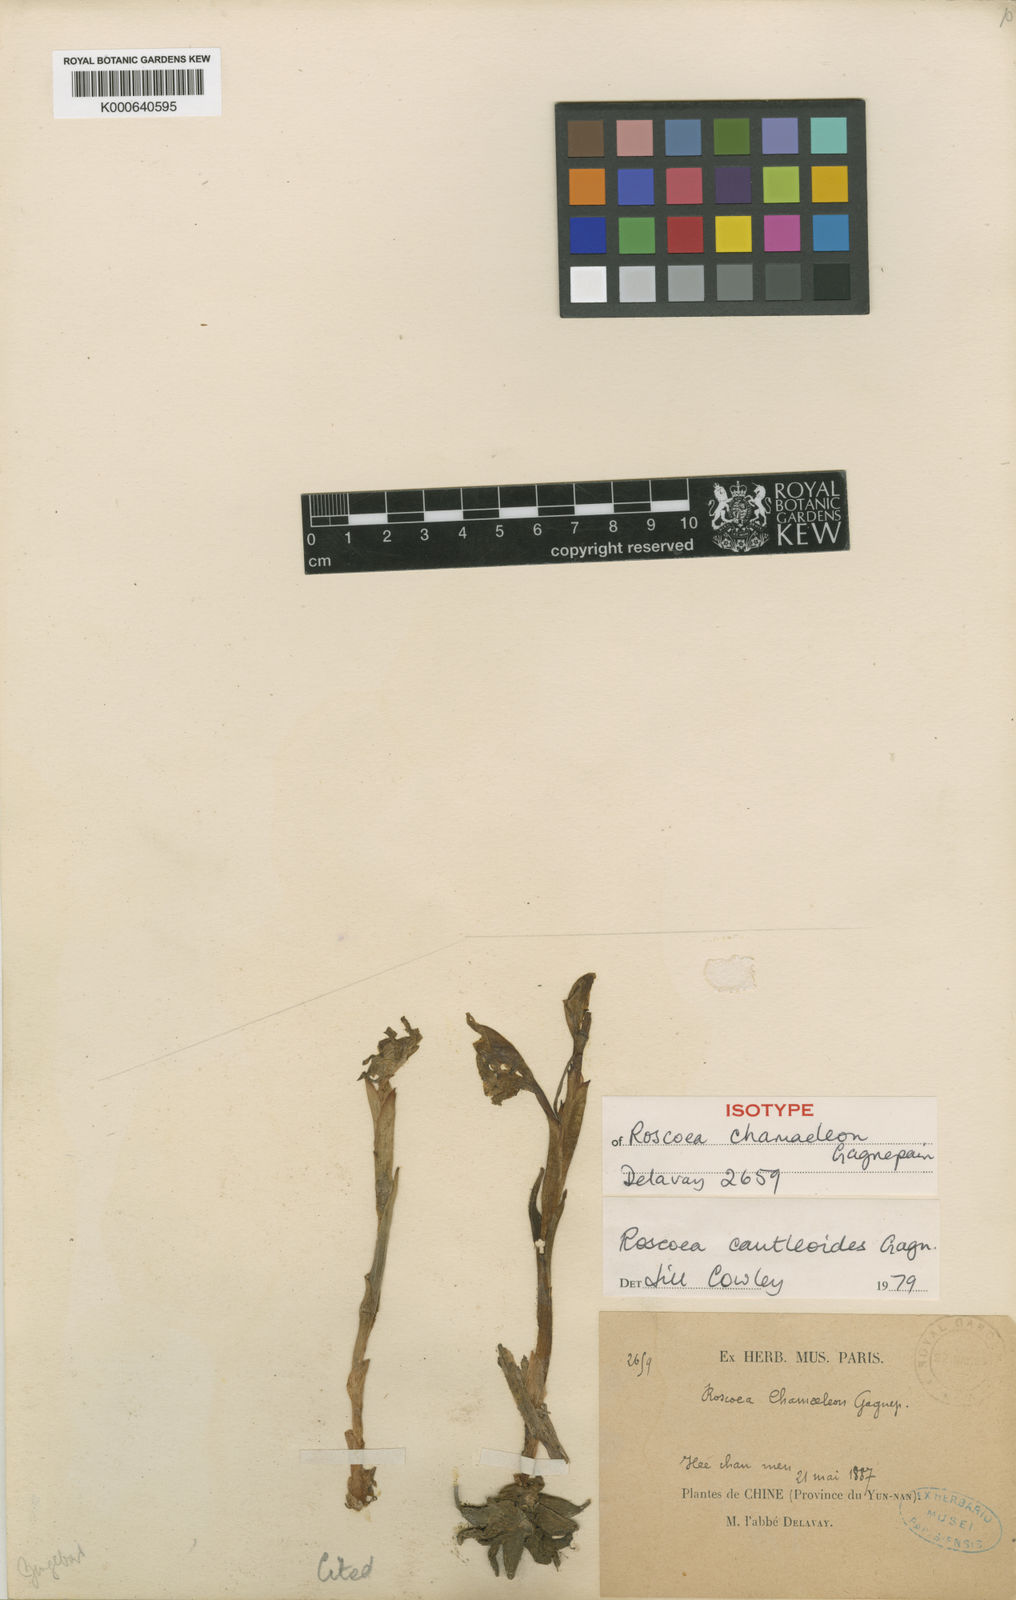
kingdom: Plantae
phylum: Tracheophyta
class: Liliopsida
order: Zingiberales
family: Zingiberaceae
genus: Roscoea
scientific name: Roscoea cautleyoides
